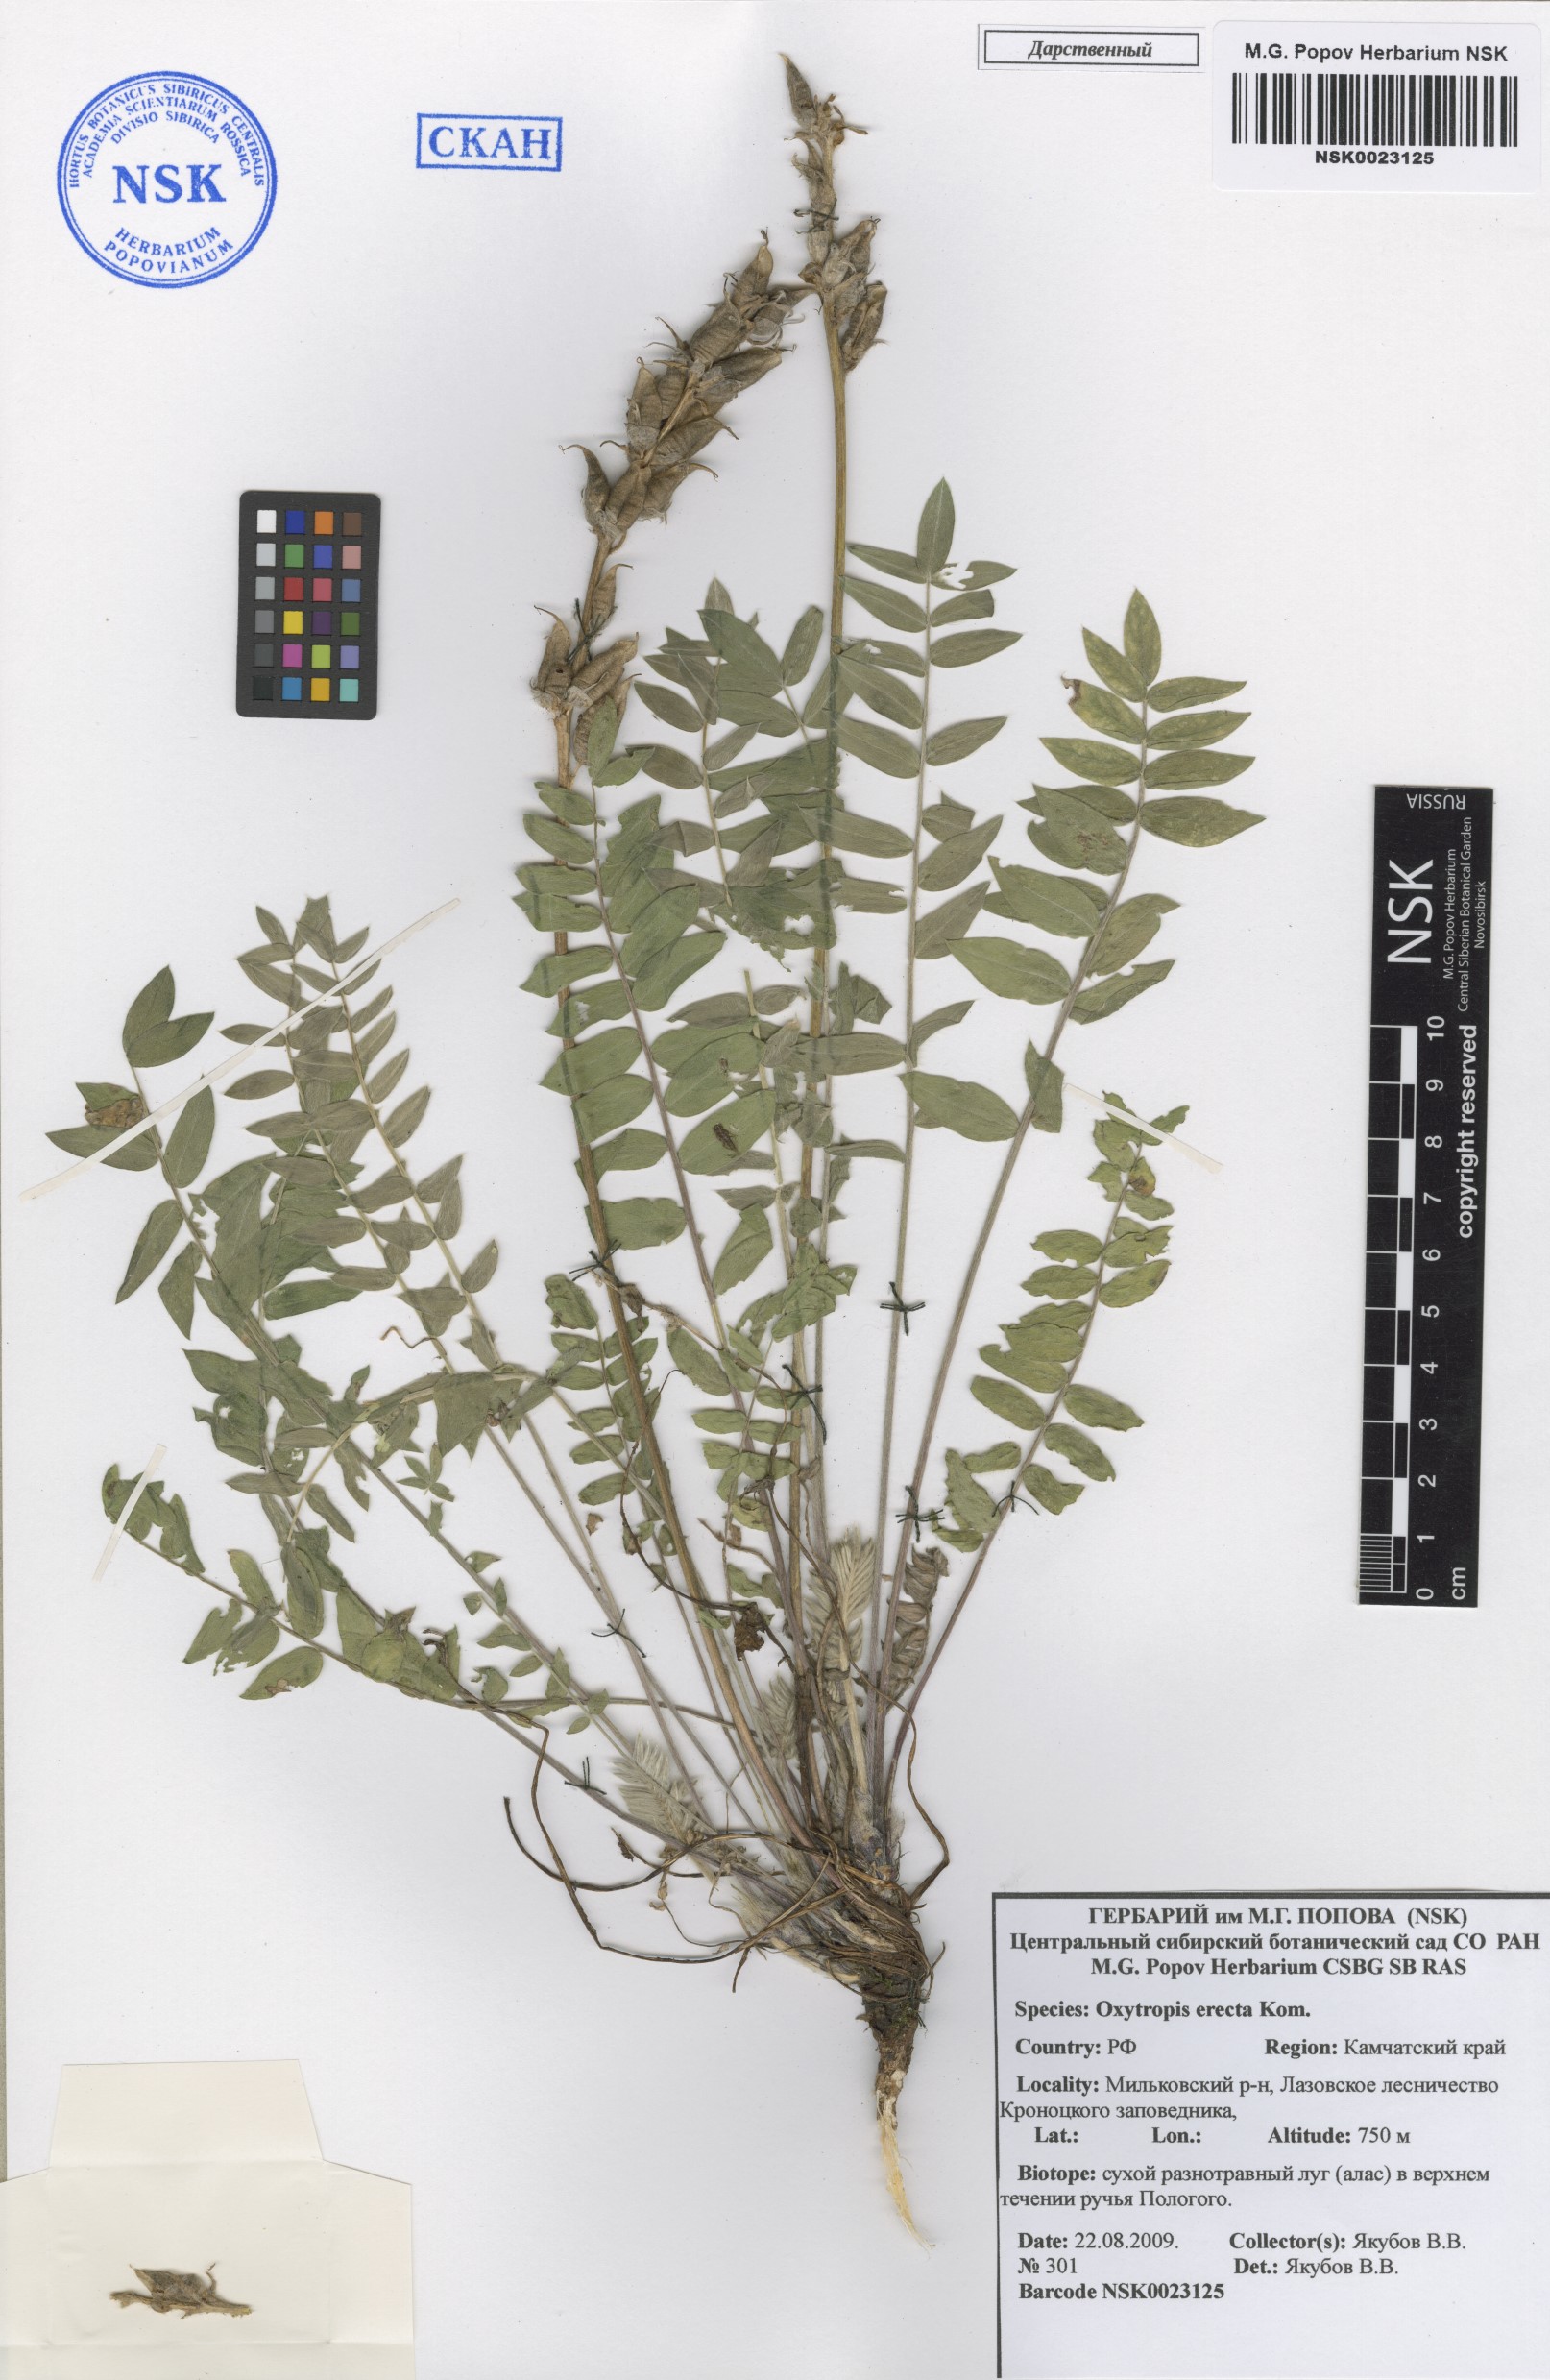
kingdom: Plantae
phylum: Tracheophyta
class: Magnoliopsida
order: Fabales
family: Fabaceae
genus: Oxytropis
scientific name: Oxytropis adamsiana
